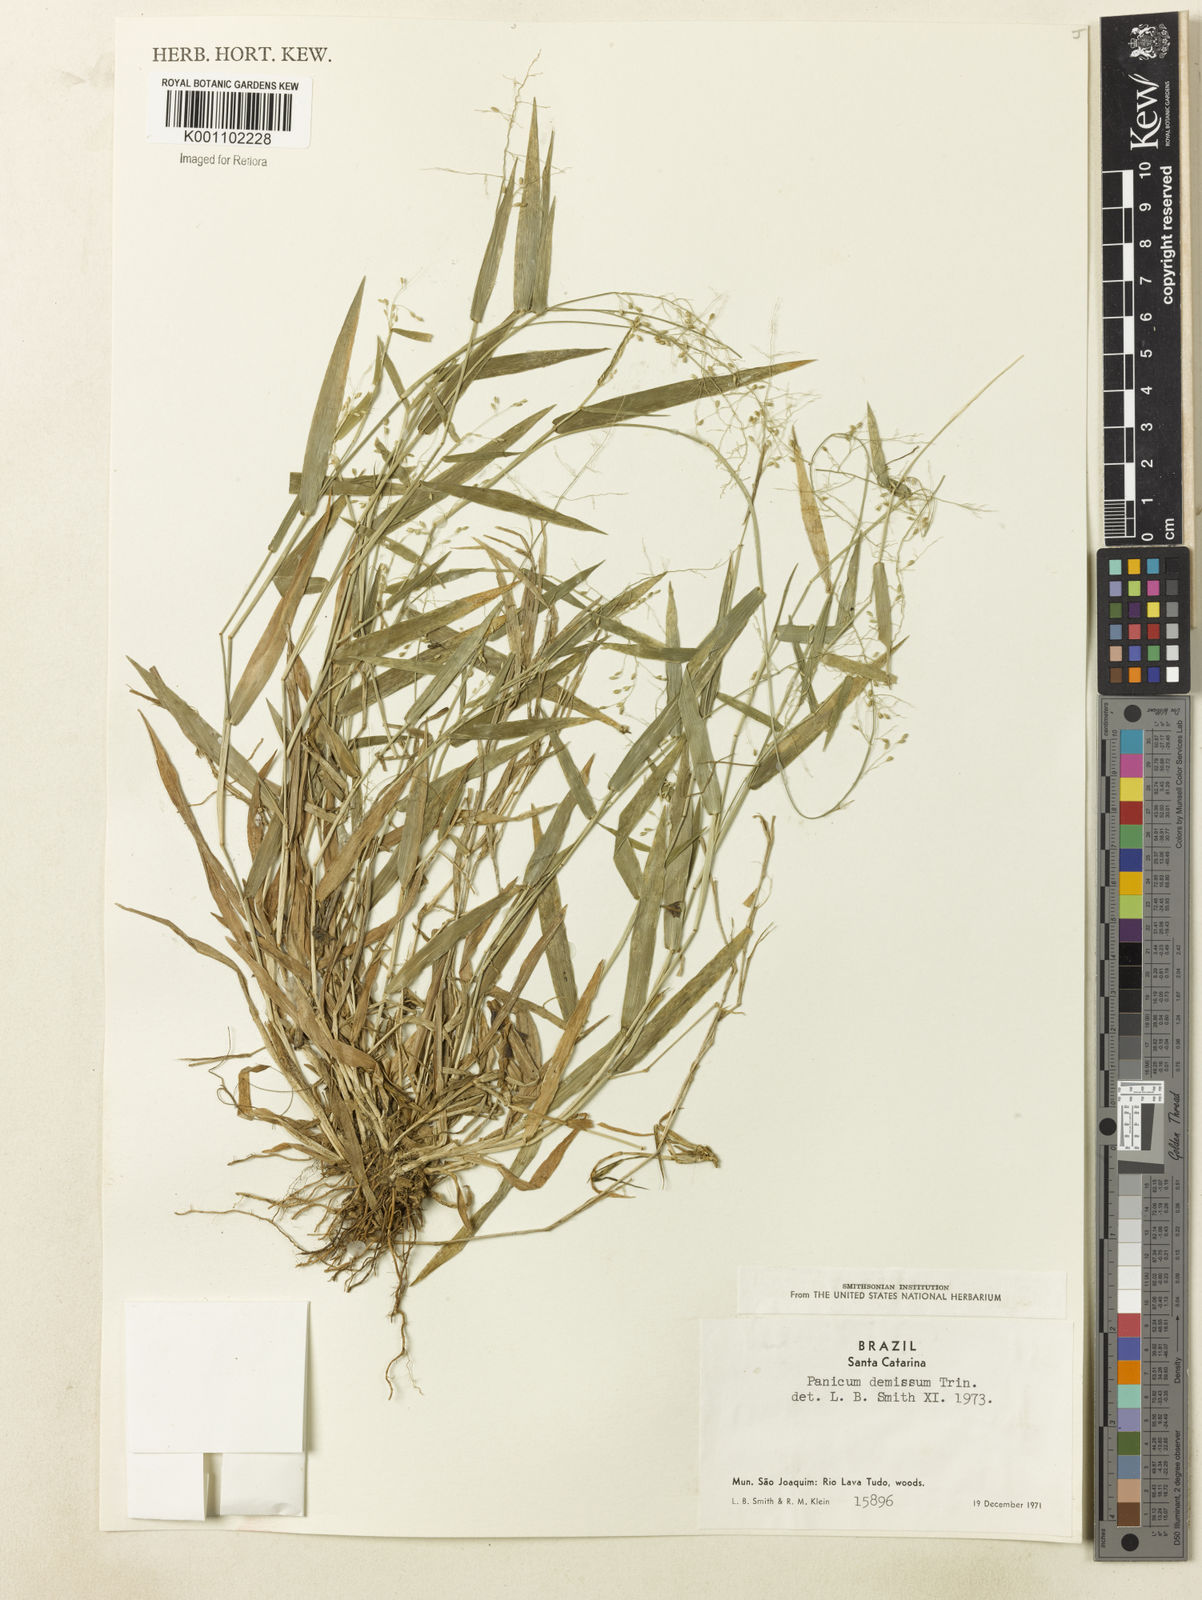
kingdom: Plantae
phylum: Tracheophyta
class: Liliopsida
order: Poales
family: Poaceae
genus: Dichanthelium
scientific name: Dichanthelium sabulorum
